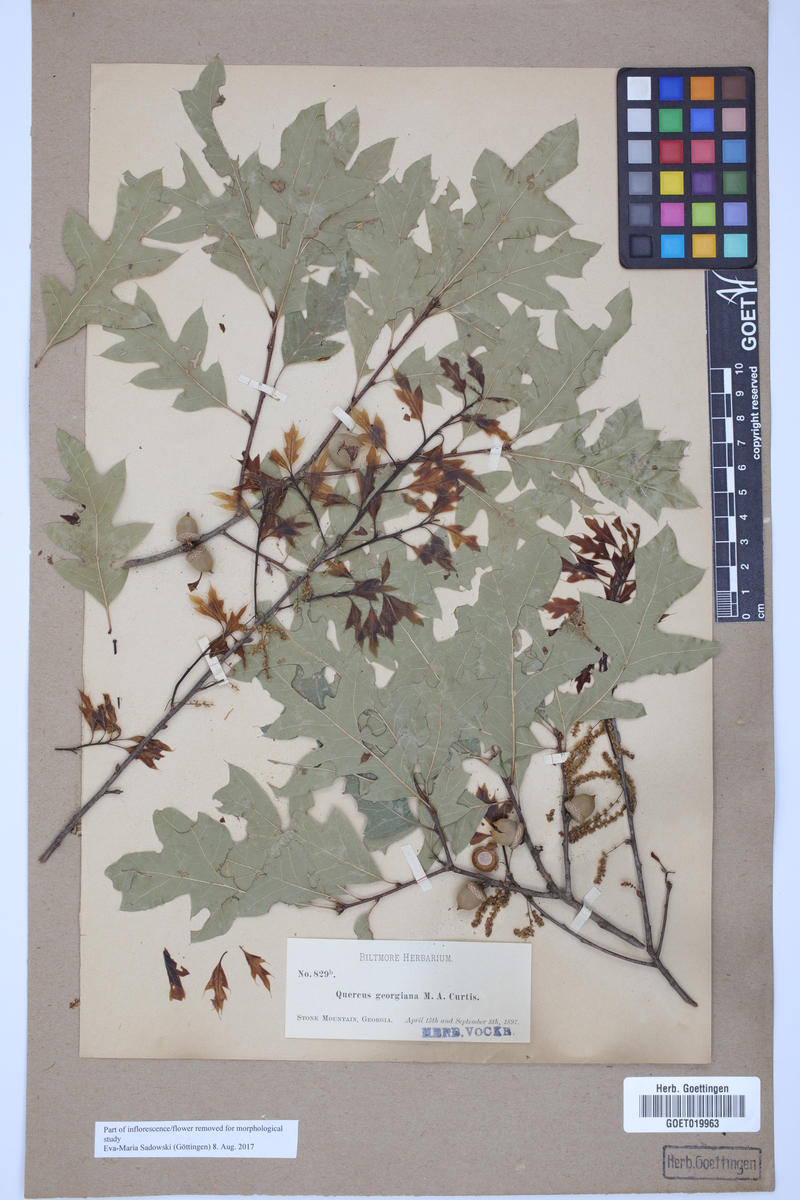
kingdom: Plantae
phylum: Tracheophyta
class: Magnoliopsida
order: Fagales
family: Fagaceae
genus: Quercus
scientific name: Quercus georgiana
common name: Georgia oak
